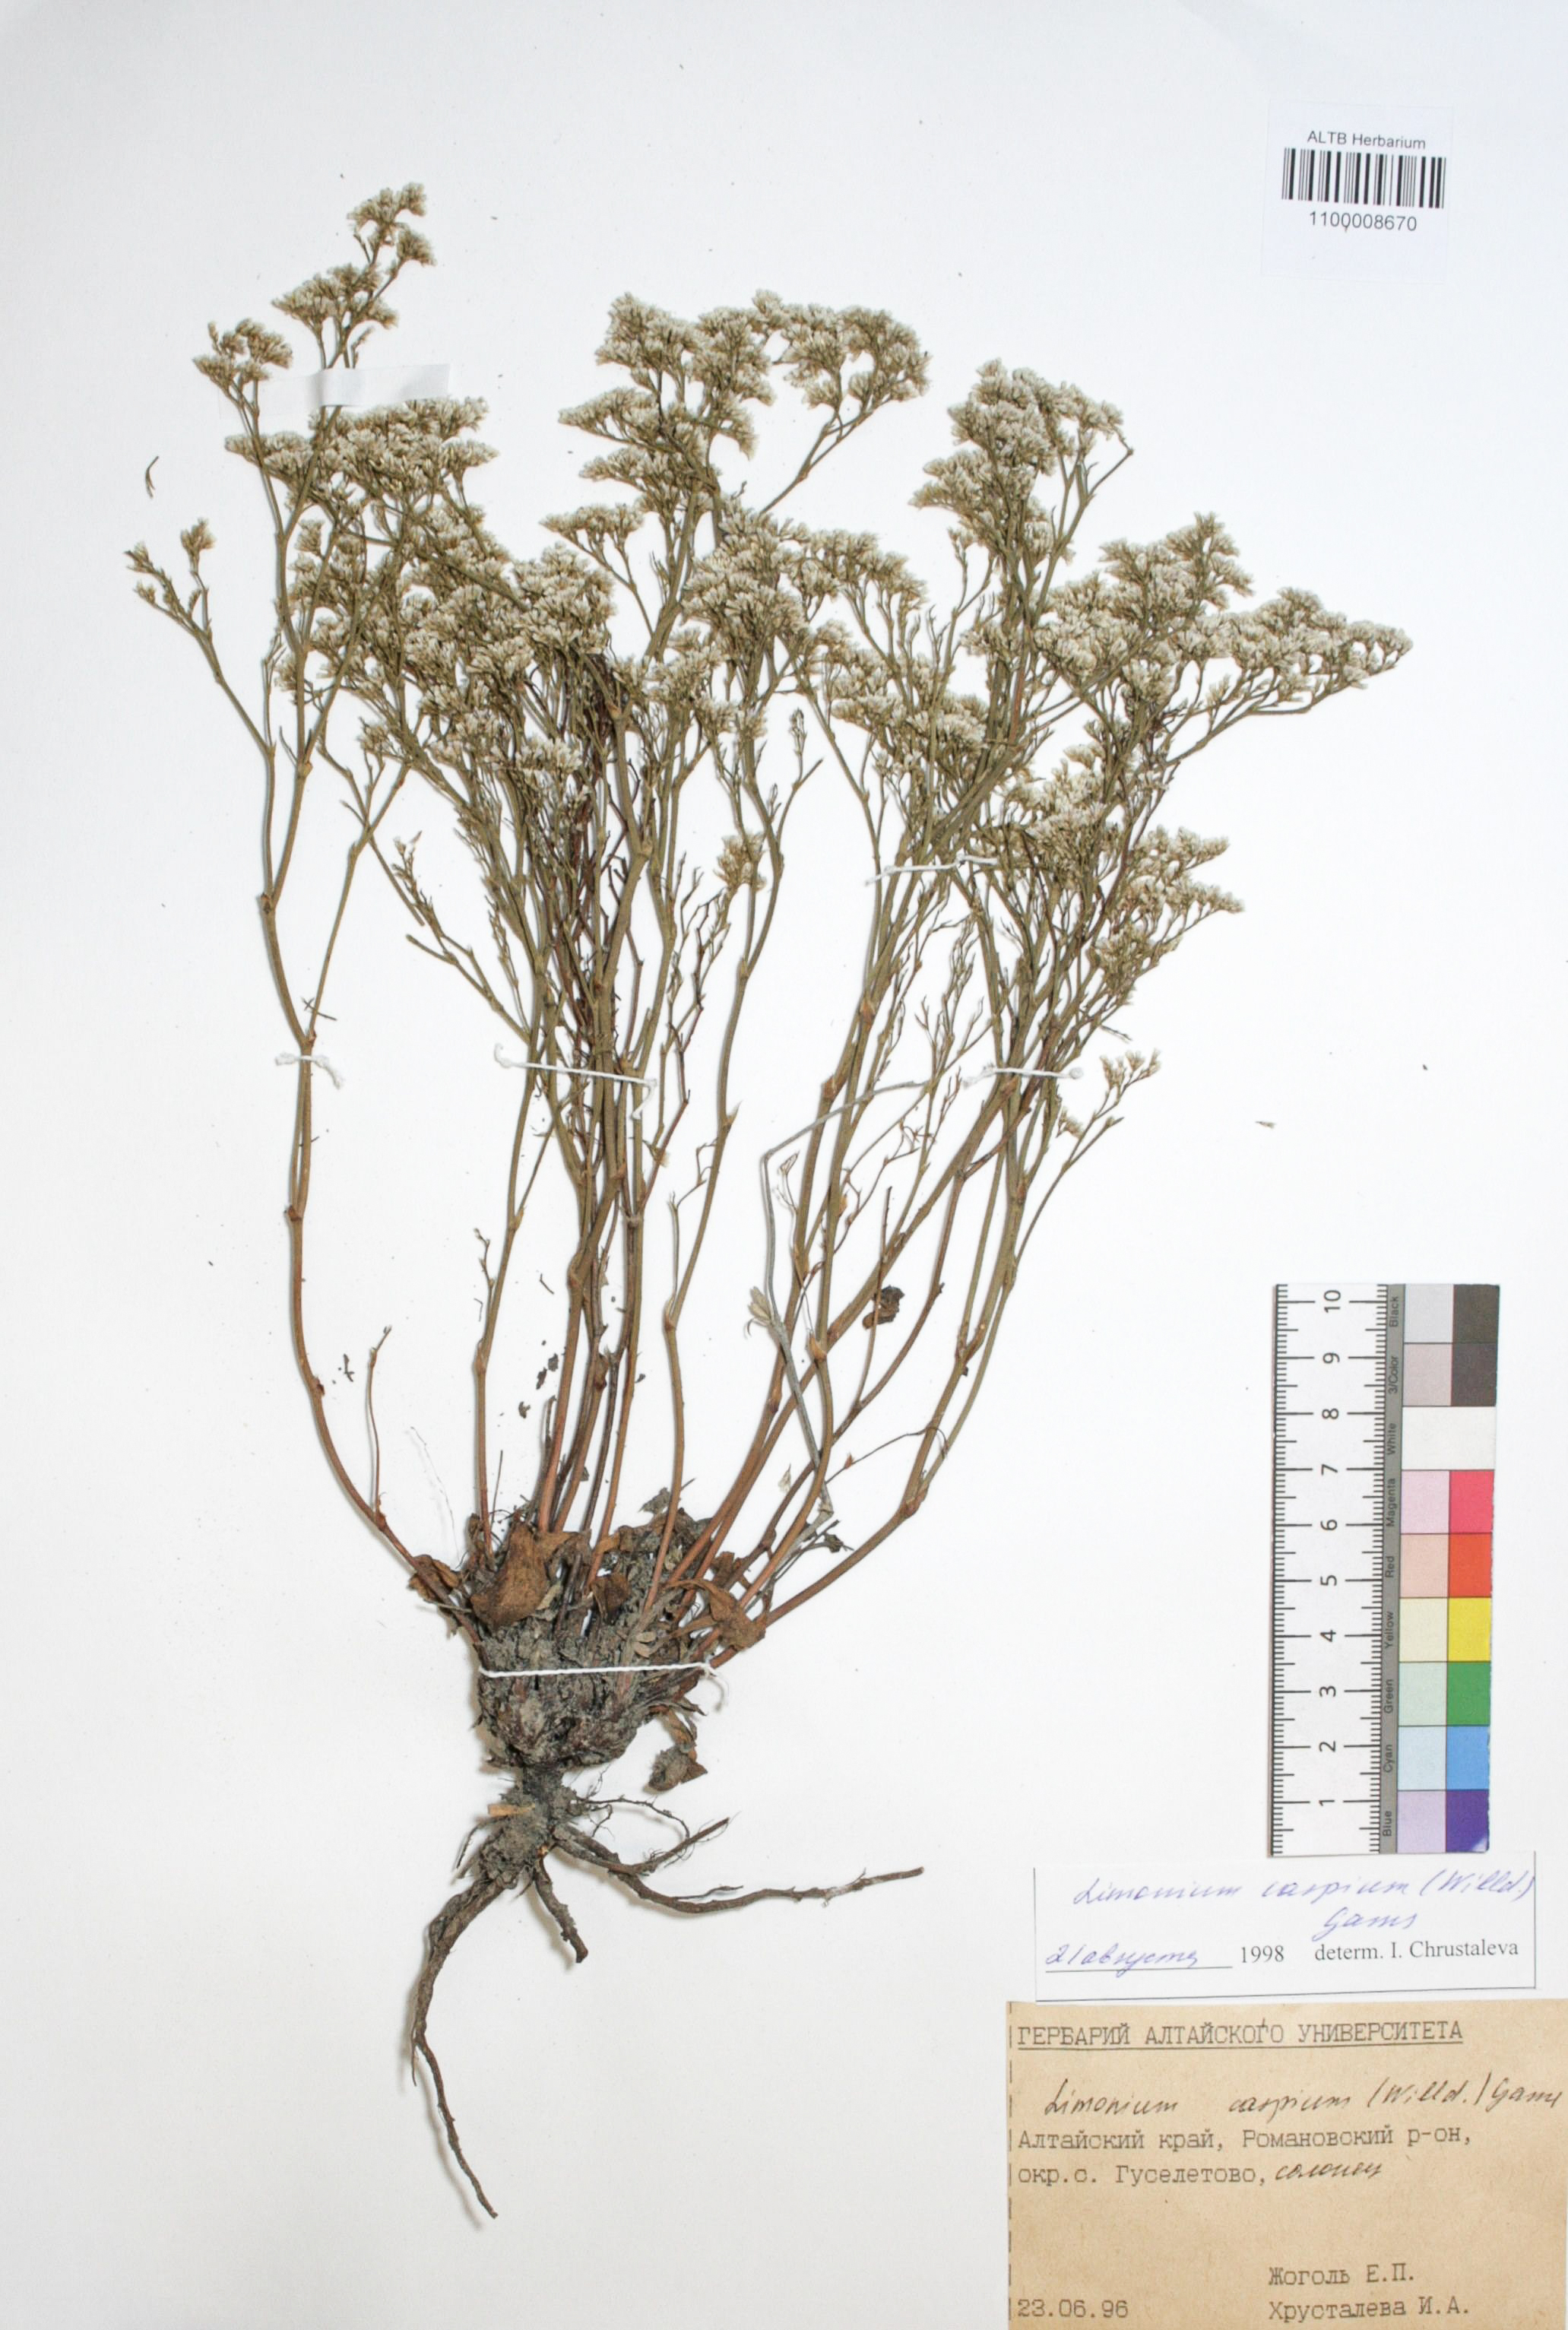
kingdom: Plantae
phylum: Tracheophyta
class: Magnoliopsida
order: Caryophyllales
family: Plumbaginaceae
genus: Limonium
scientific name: Limonium bellidifolium
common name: Matted sea-lavender
